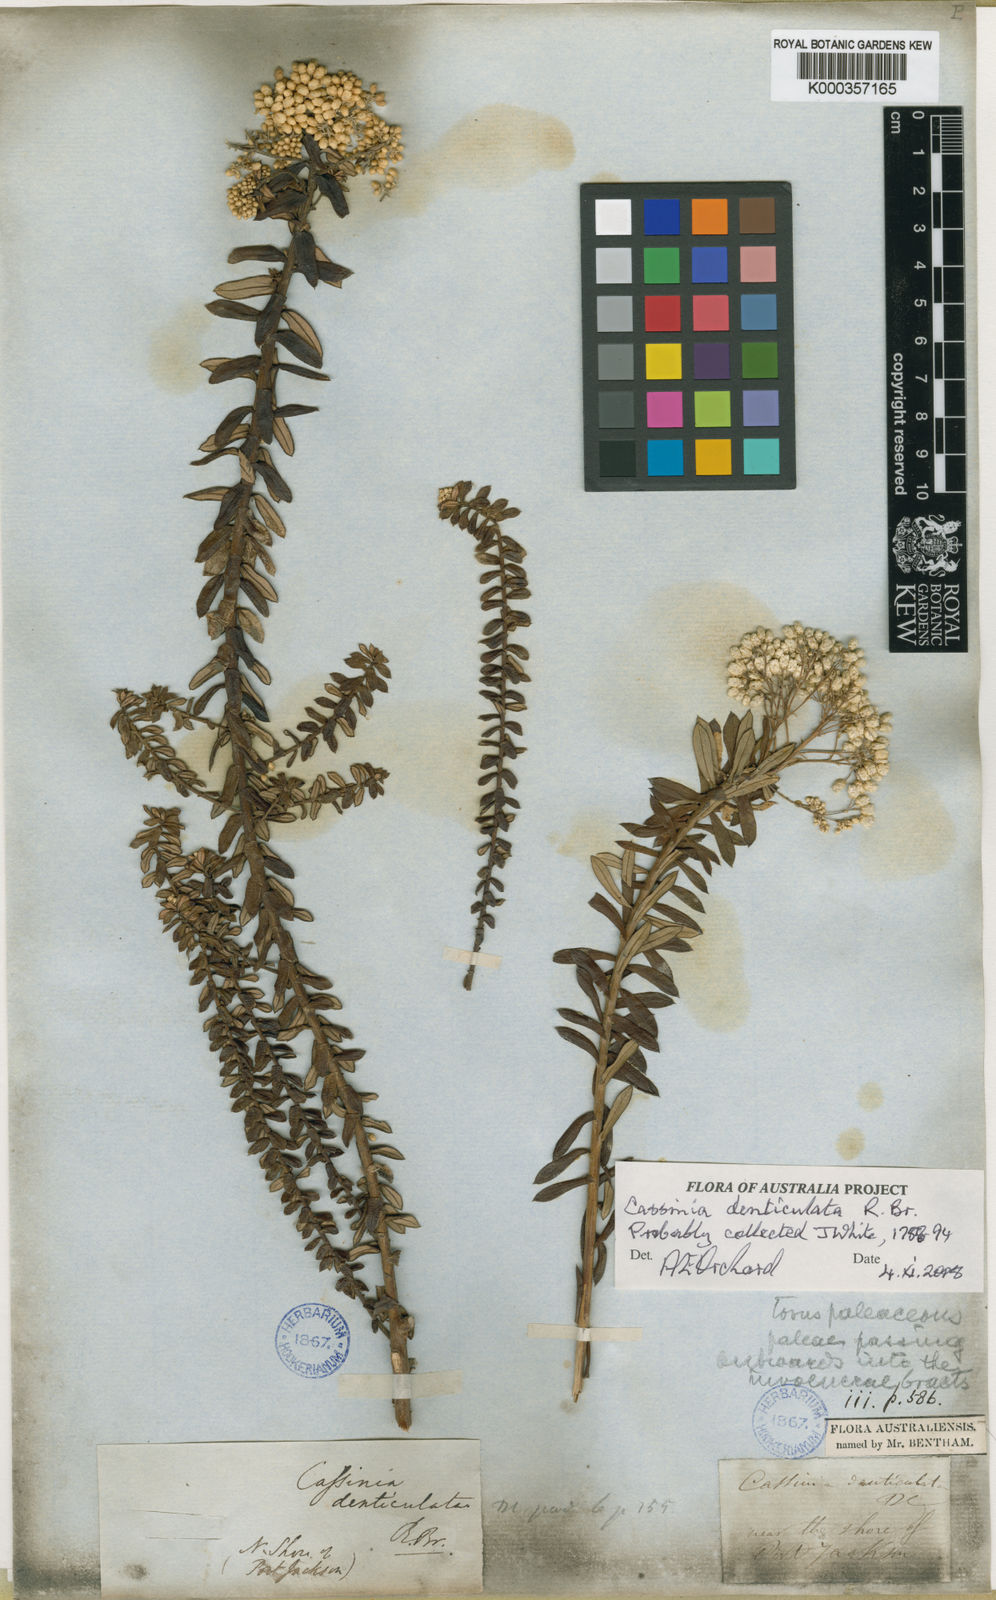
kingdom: Plantae
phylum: Tracheophyta
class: Magnoliopsida
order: Asterales
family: Asteraceae
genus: Cassinia
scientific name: Cassinia denticulata
